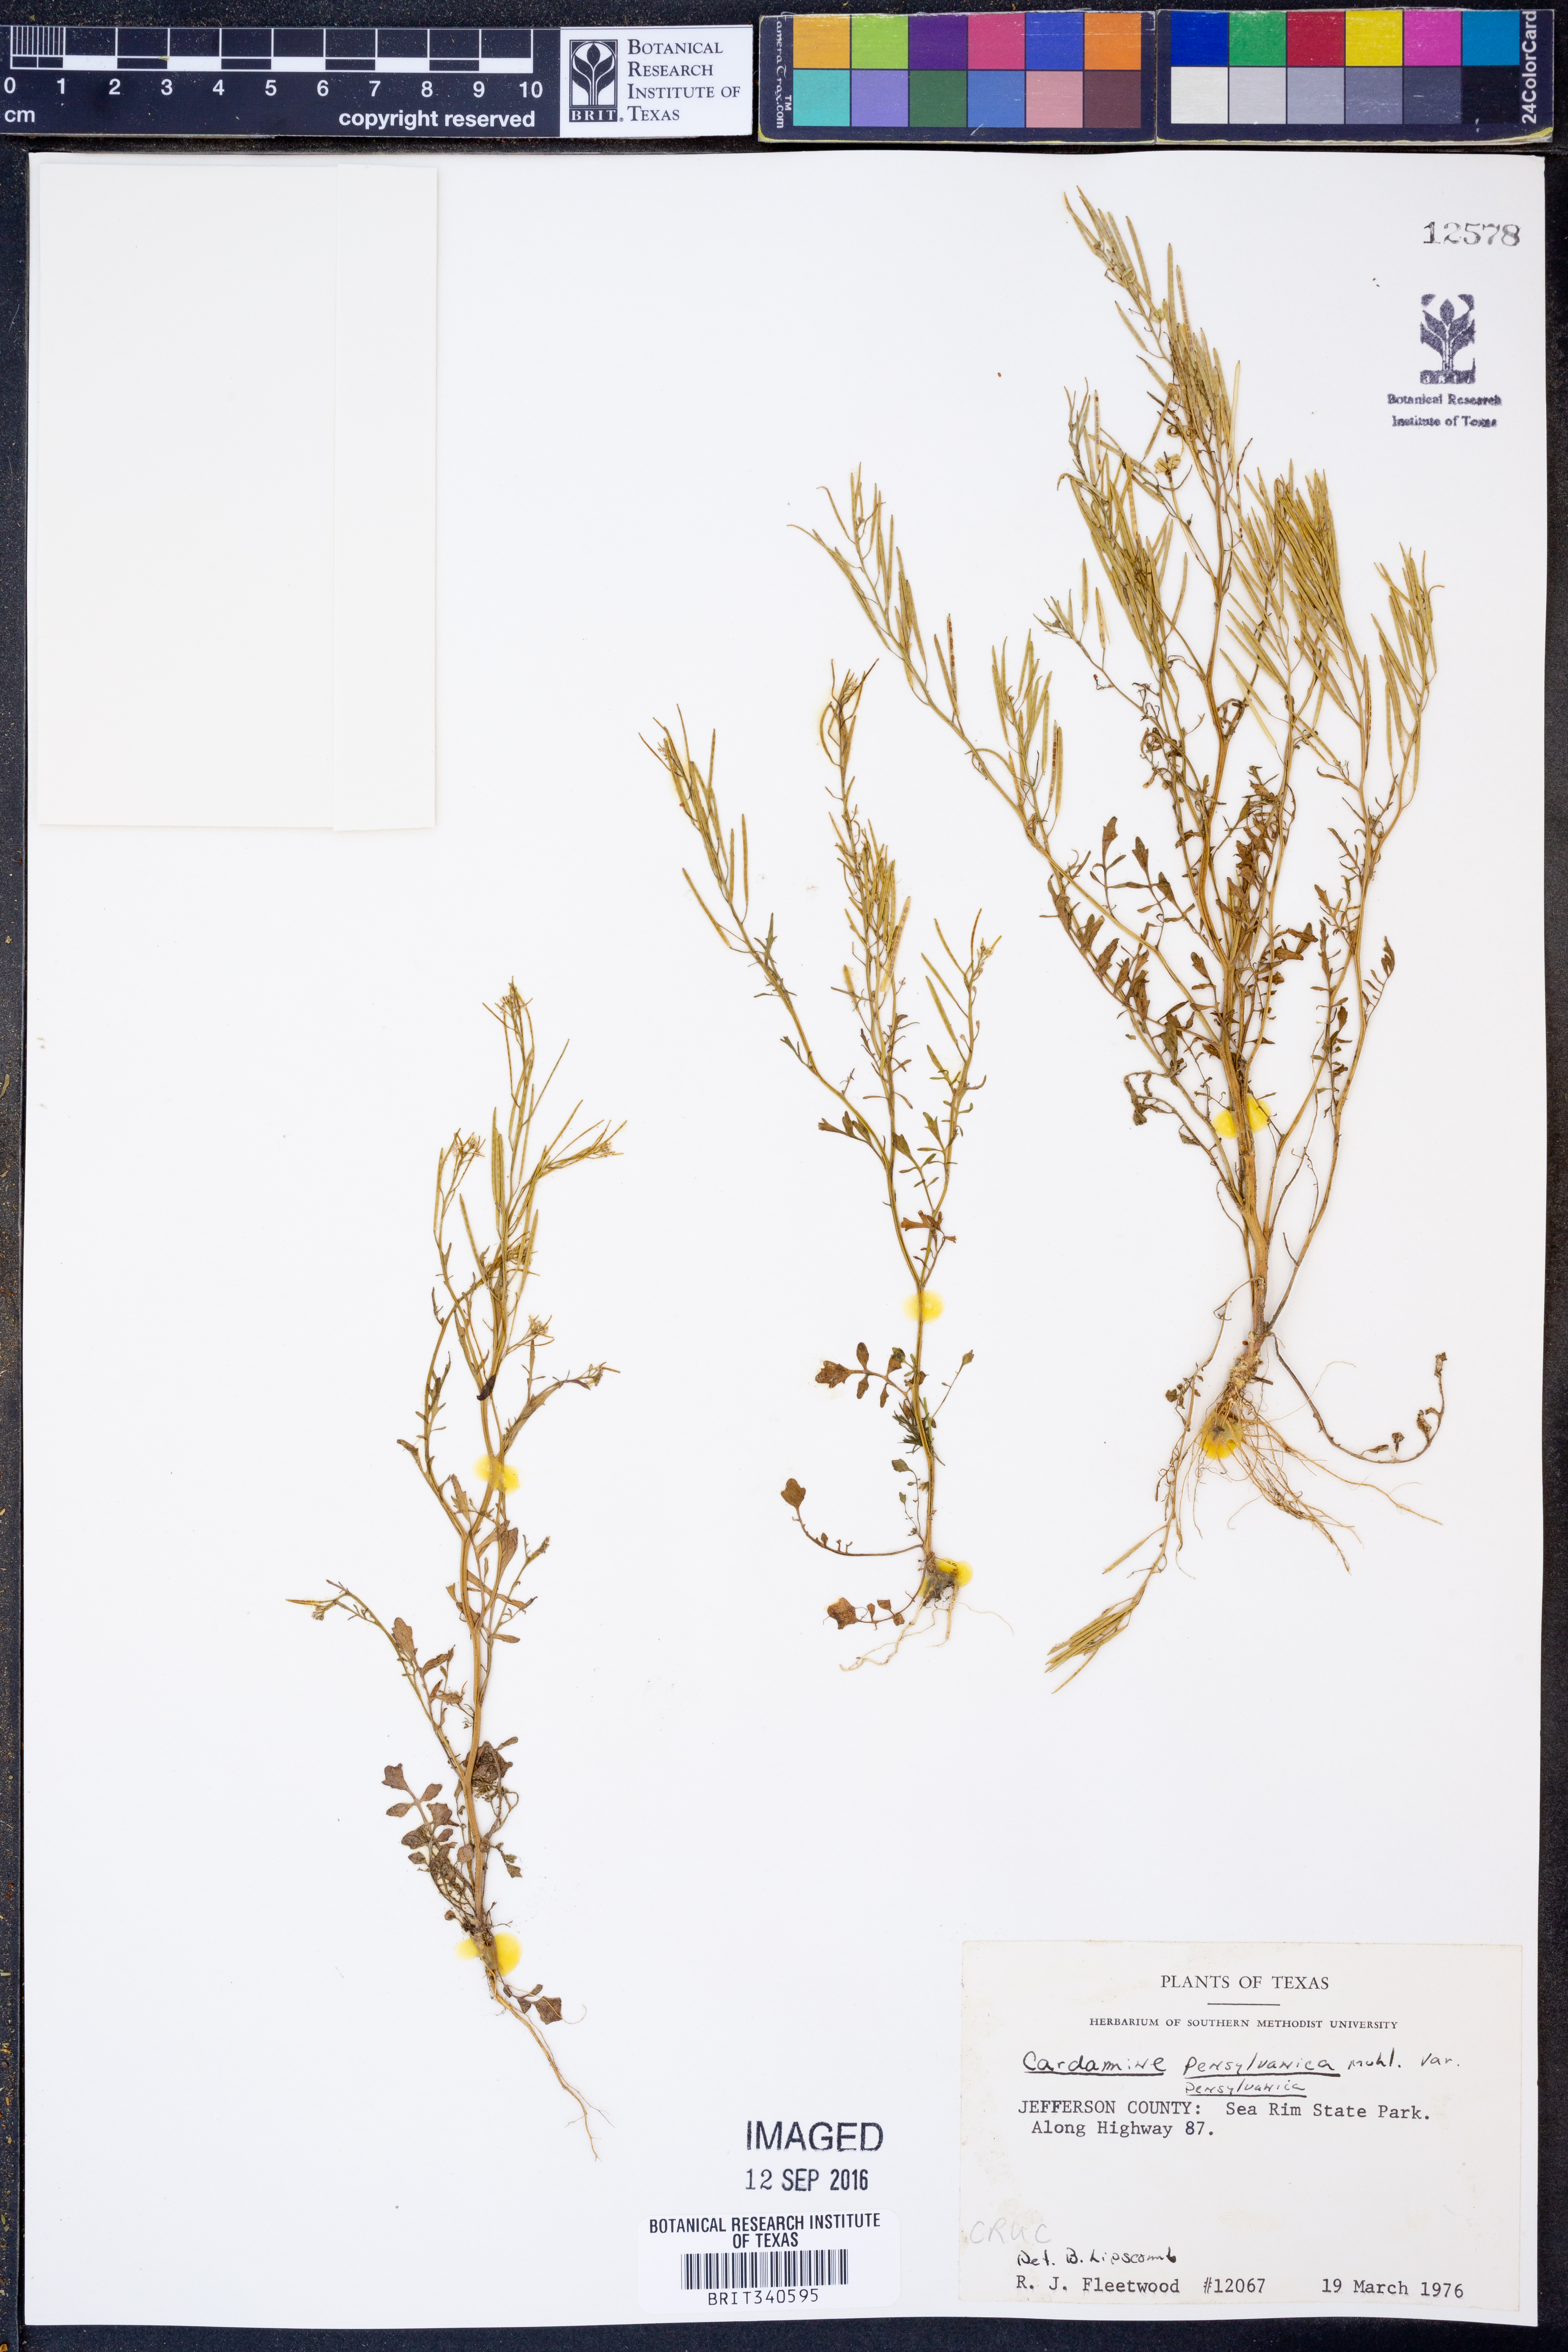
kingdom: Plantae
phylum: Tracheophyta
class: Magnoliopsida
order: Brassicales
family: Brassicaceae
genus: Cardamine
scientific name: Cardamine pensylvanica
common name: Pennsylvania bittercress
